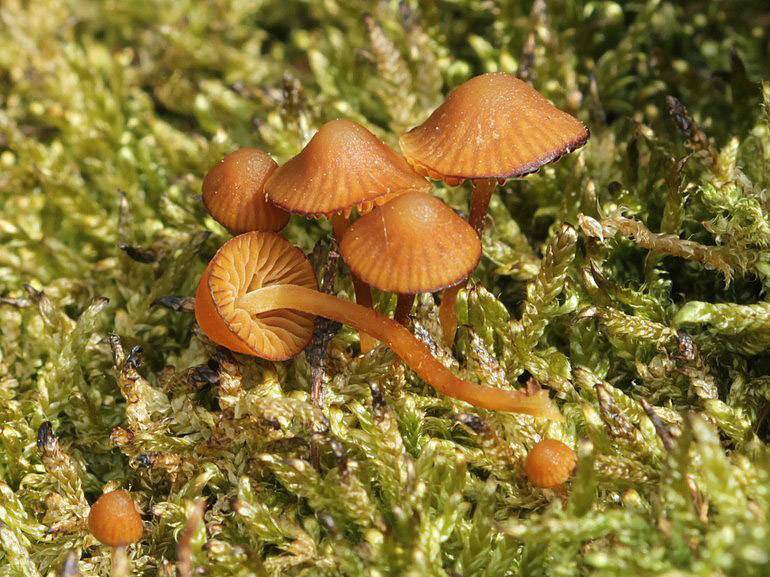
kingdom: Fungi
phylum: Basidiomycota
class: Agaricomycetes
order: Agaricales
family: Hymenogastraceae
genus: Galerina
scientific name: Galerina hypnorum
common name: mos-hjelmhat
